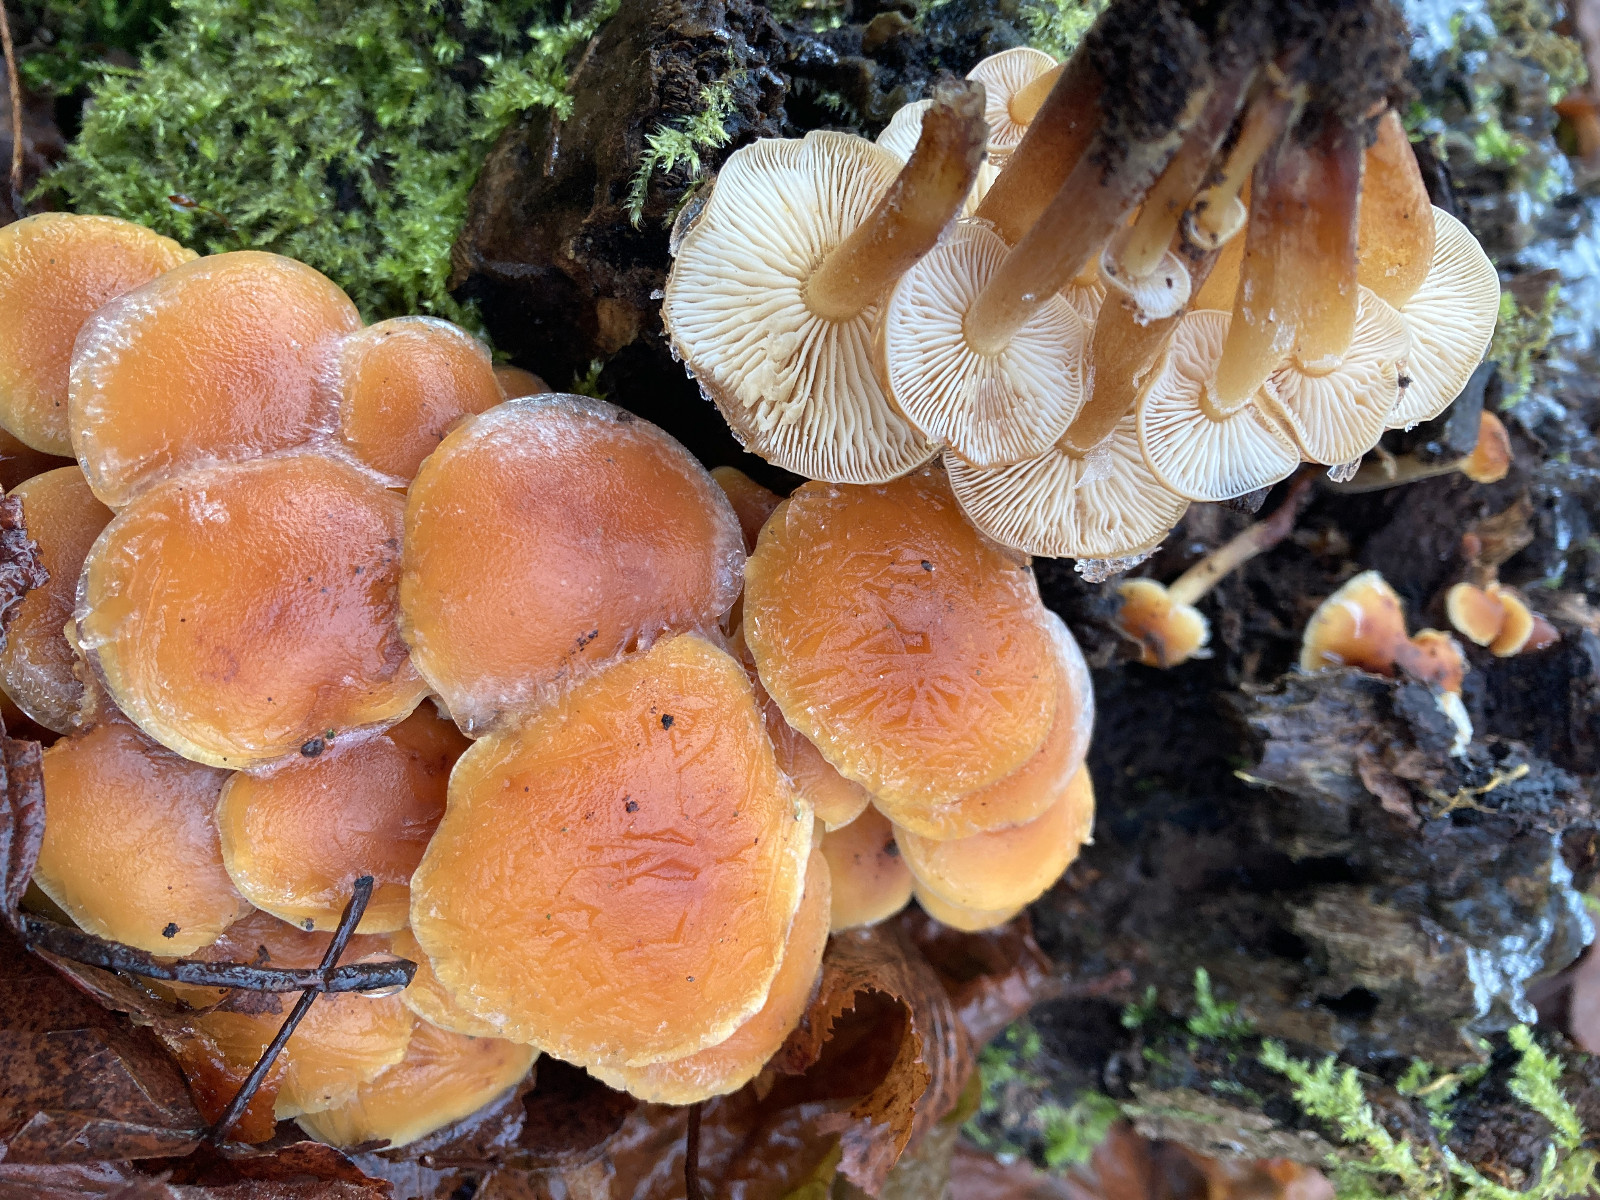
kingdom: Fungi
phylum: Basidiomycota
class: Agaricomycetes
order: Agaricales
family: Physalacriaceae
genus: Flammulina
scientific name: Flammulina
